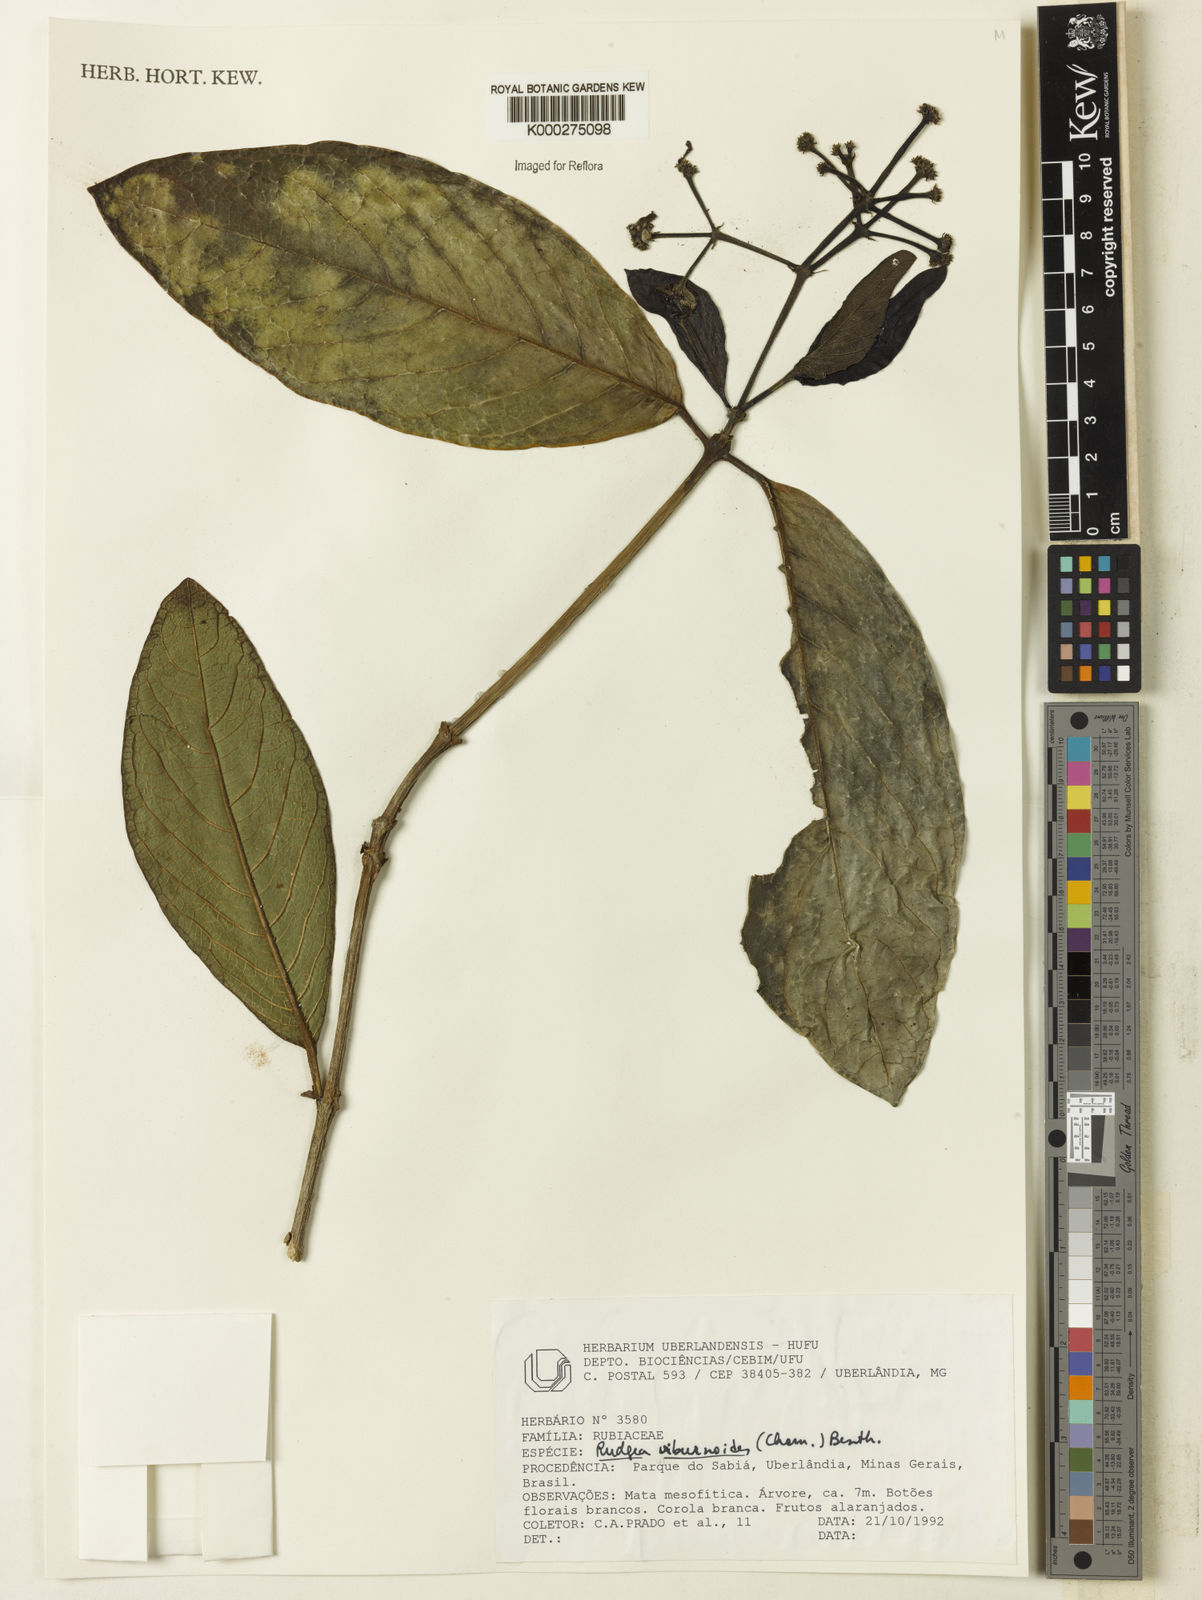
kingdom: Plantae
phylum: Tracheophyta
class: Magnoliopsida
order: Gentianales
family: Rubiaceae
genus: Rudgea
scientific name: Rudgea viburnoides
